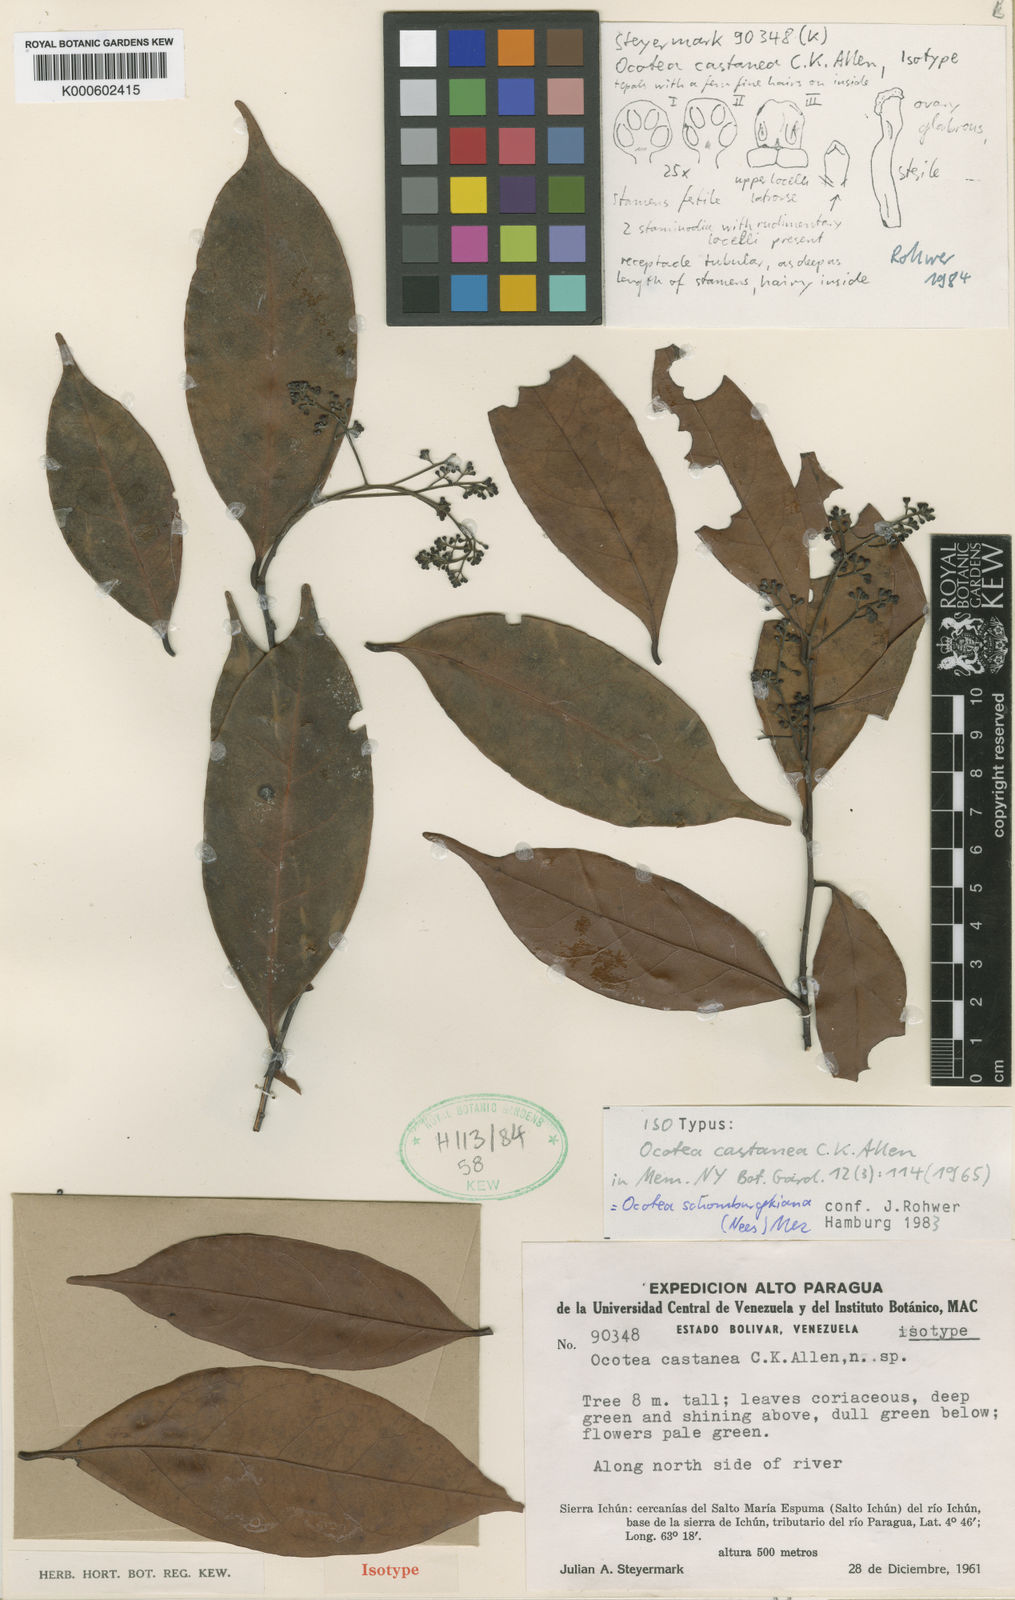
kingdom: Plantae
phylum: Tracheophyta
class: Magnoliopsida
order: Laurales
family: Lauraceae
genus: Ocotea
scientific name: Ocotea schomburgkiana
